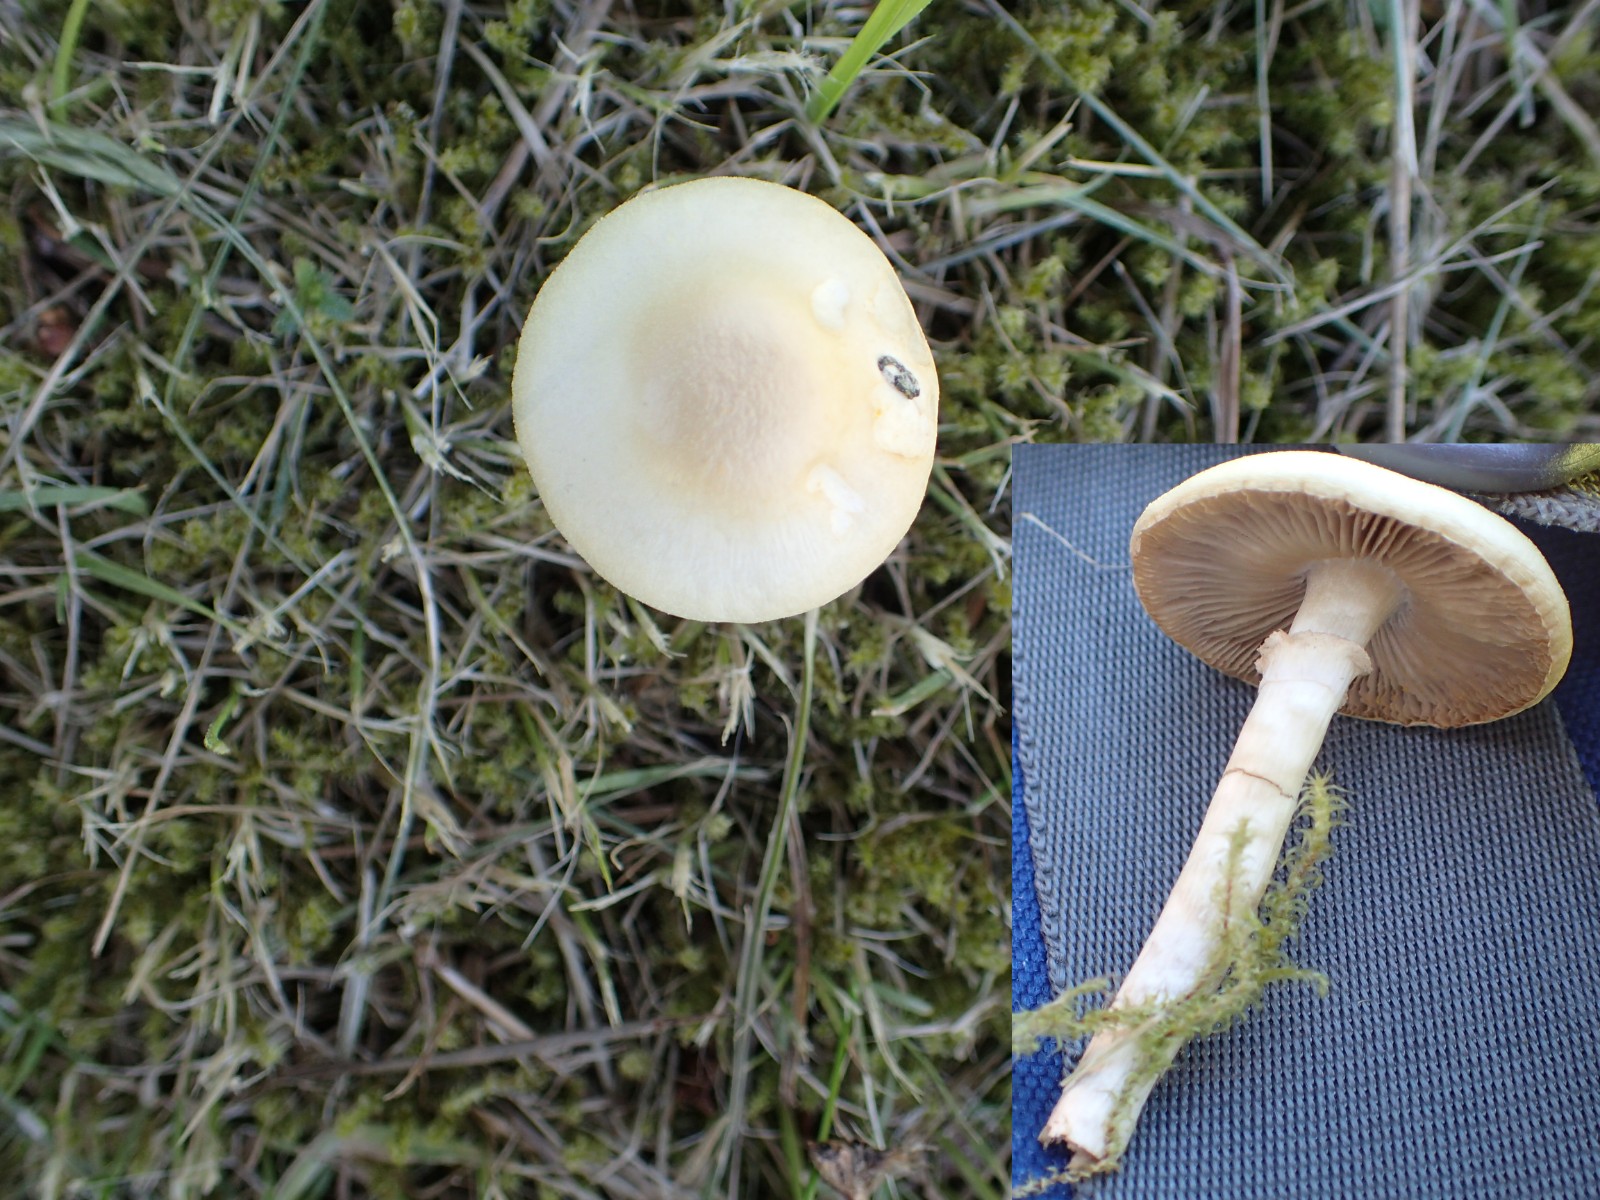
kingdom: Fungi
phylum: Basidiomycota
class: Agaricomycetes
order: Agaricales
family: Strophariaceae
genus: Agrocybe
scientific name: Agrocybe praecox
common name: tidlig agerhat
